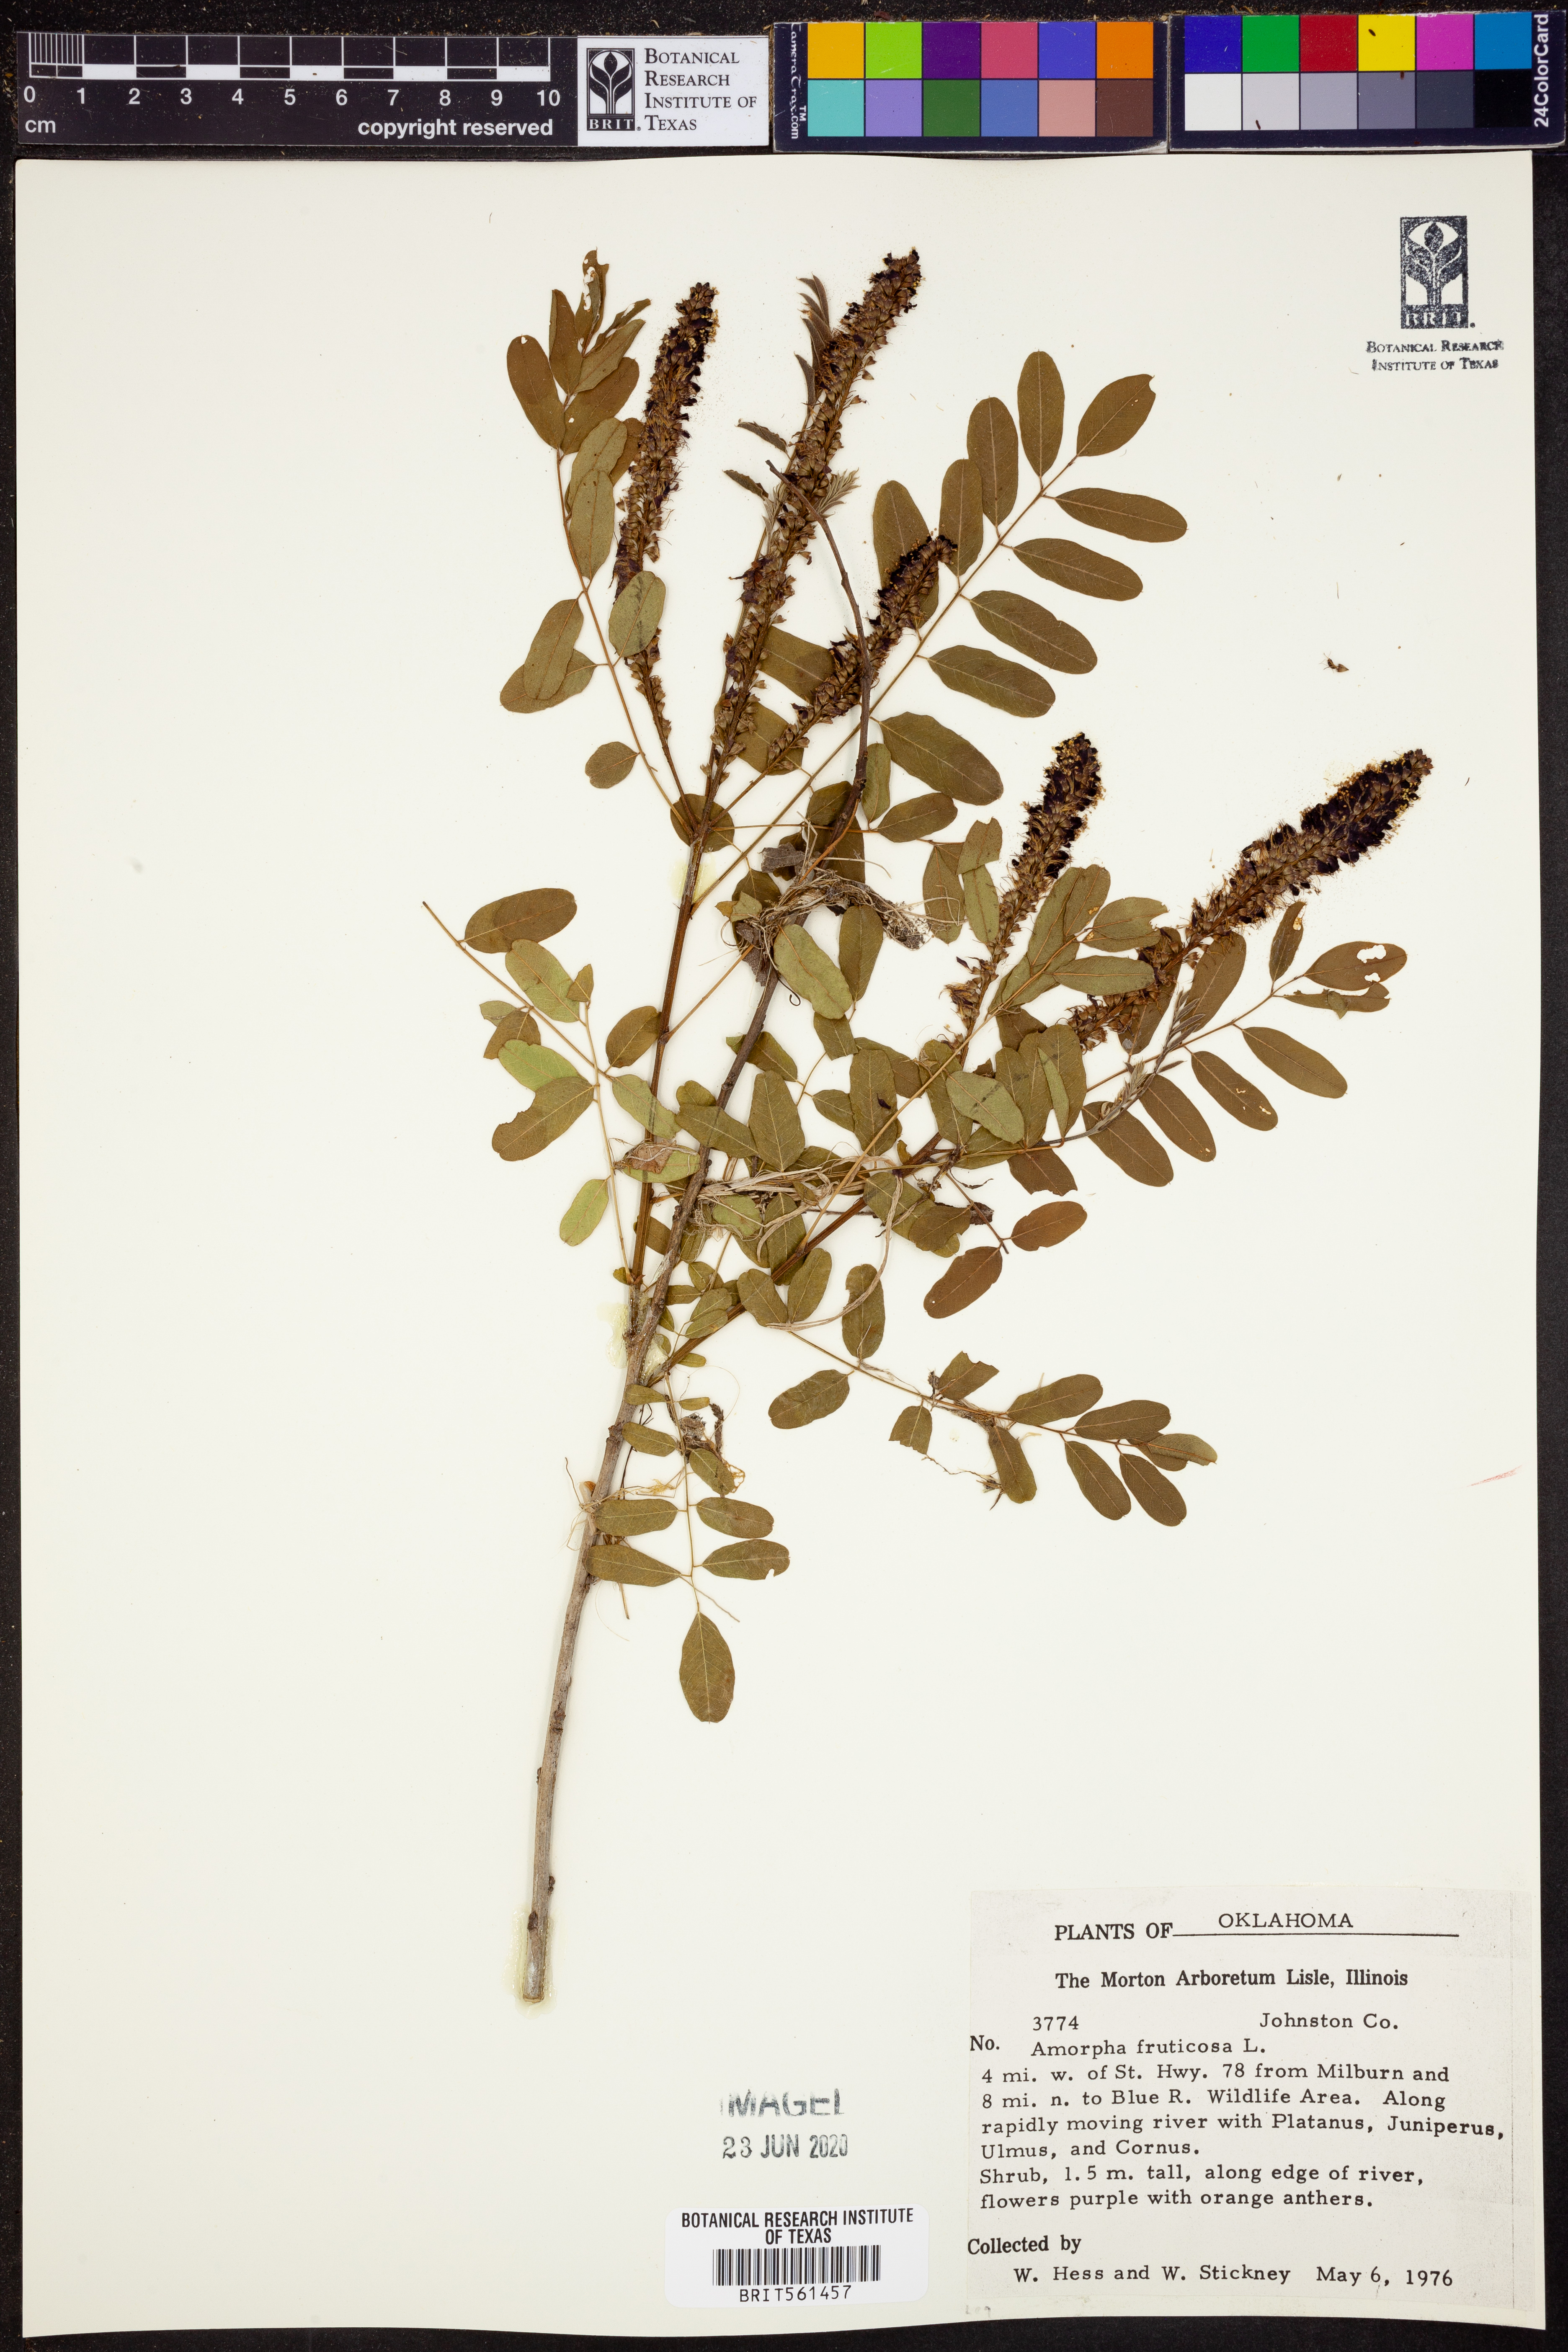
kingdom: Plantae
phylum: Tracheophyta
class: Magnoliopsida
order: Fabales
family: Fabaceae
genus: Amorpha
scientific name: Amorpha fruticosa
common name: False indigo
